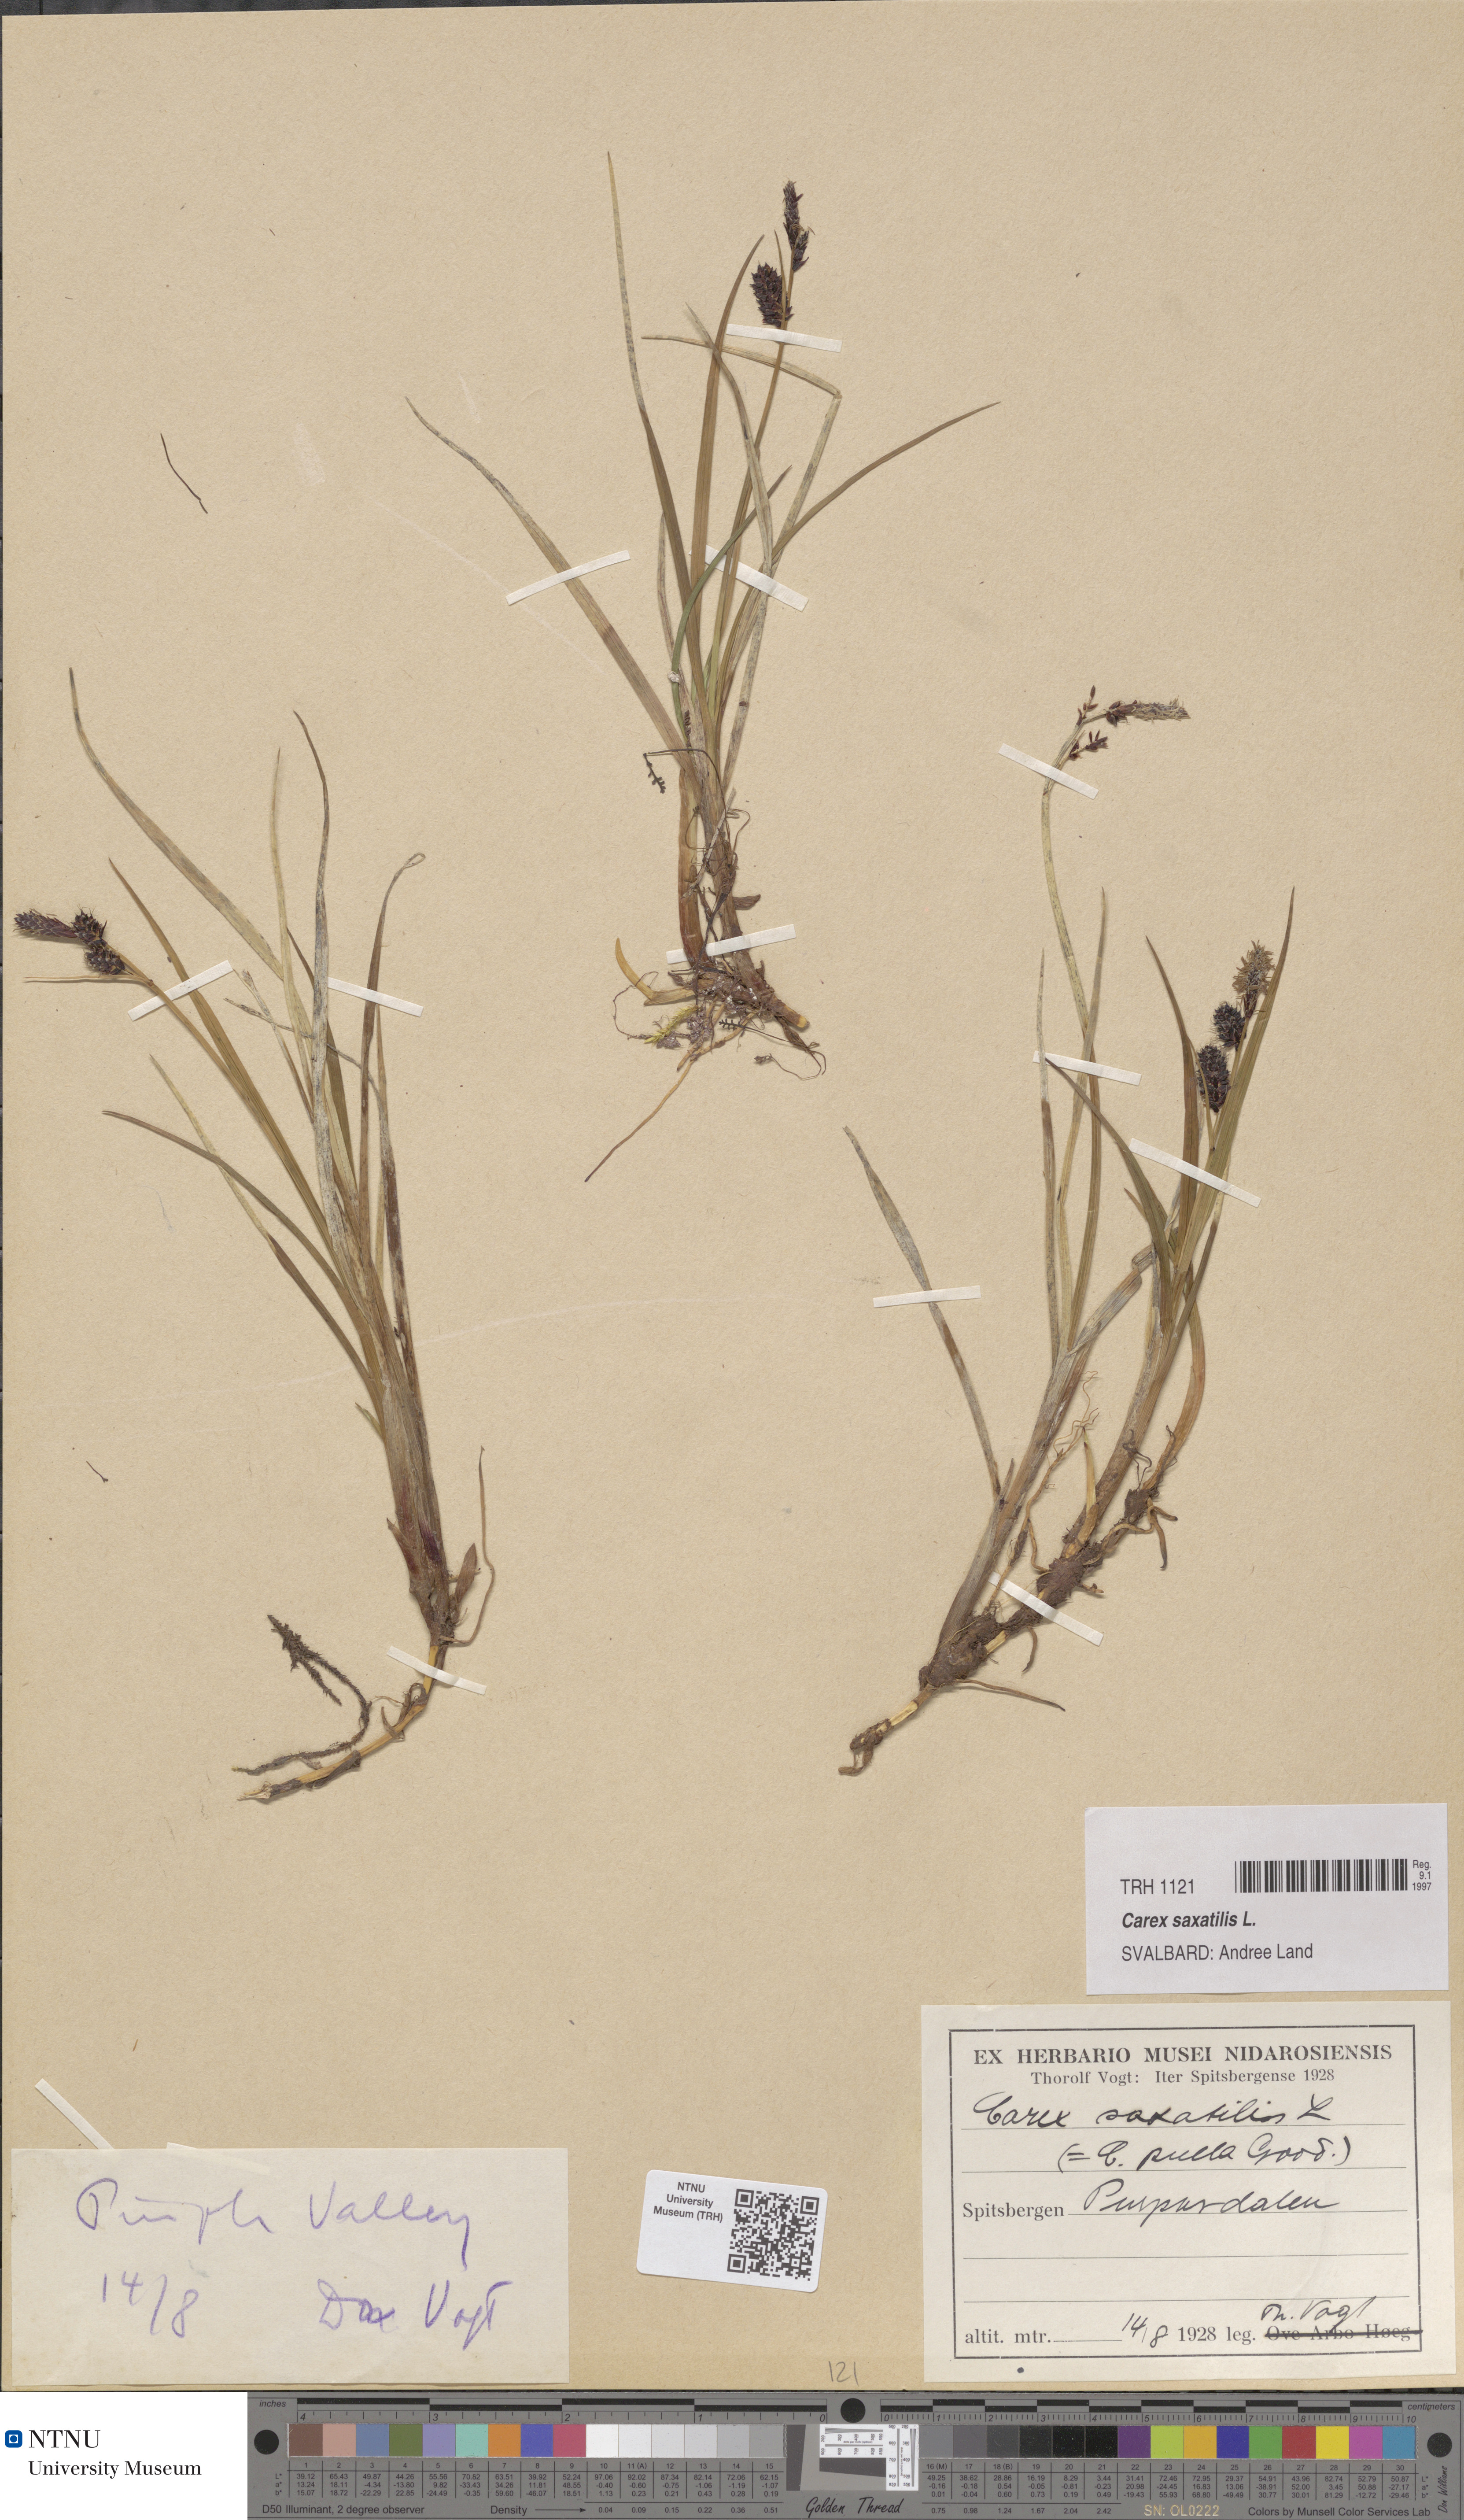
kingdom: Plantae
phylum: Tracheophyta
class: Liliopsida
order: Poales
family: Cyperaceae
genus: Carex
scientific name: Carex saxatilis
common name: Russet sedge
